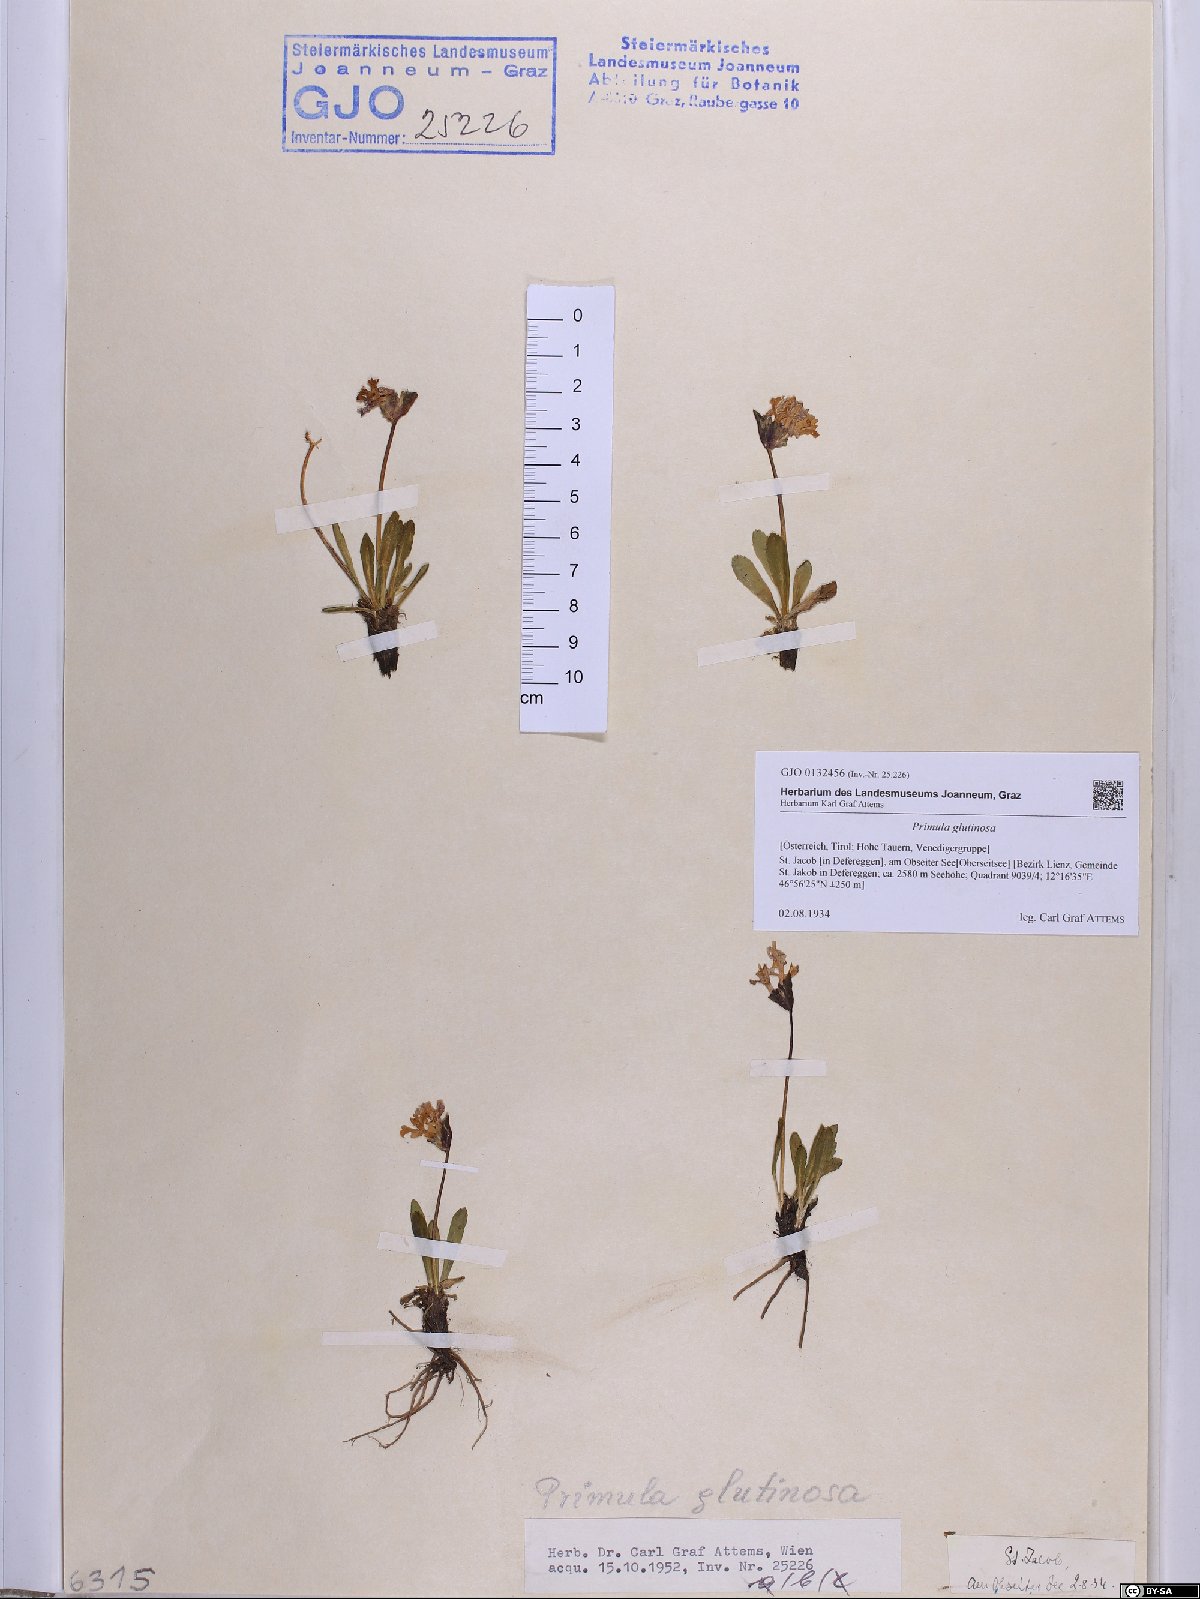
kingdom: Plantae
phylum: Tracheophyta
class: Magnoliopsida
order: Ericales
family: Primulaceae
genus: Primula
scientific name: Primula glutinosa
